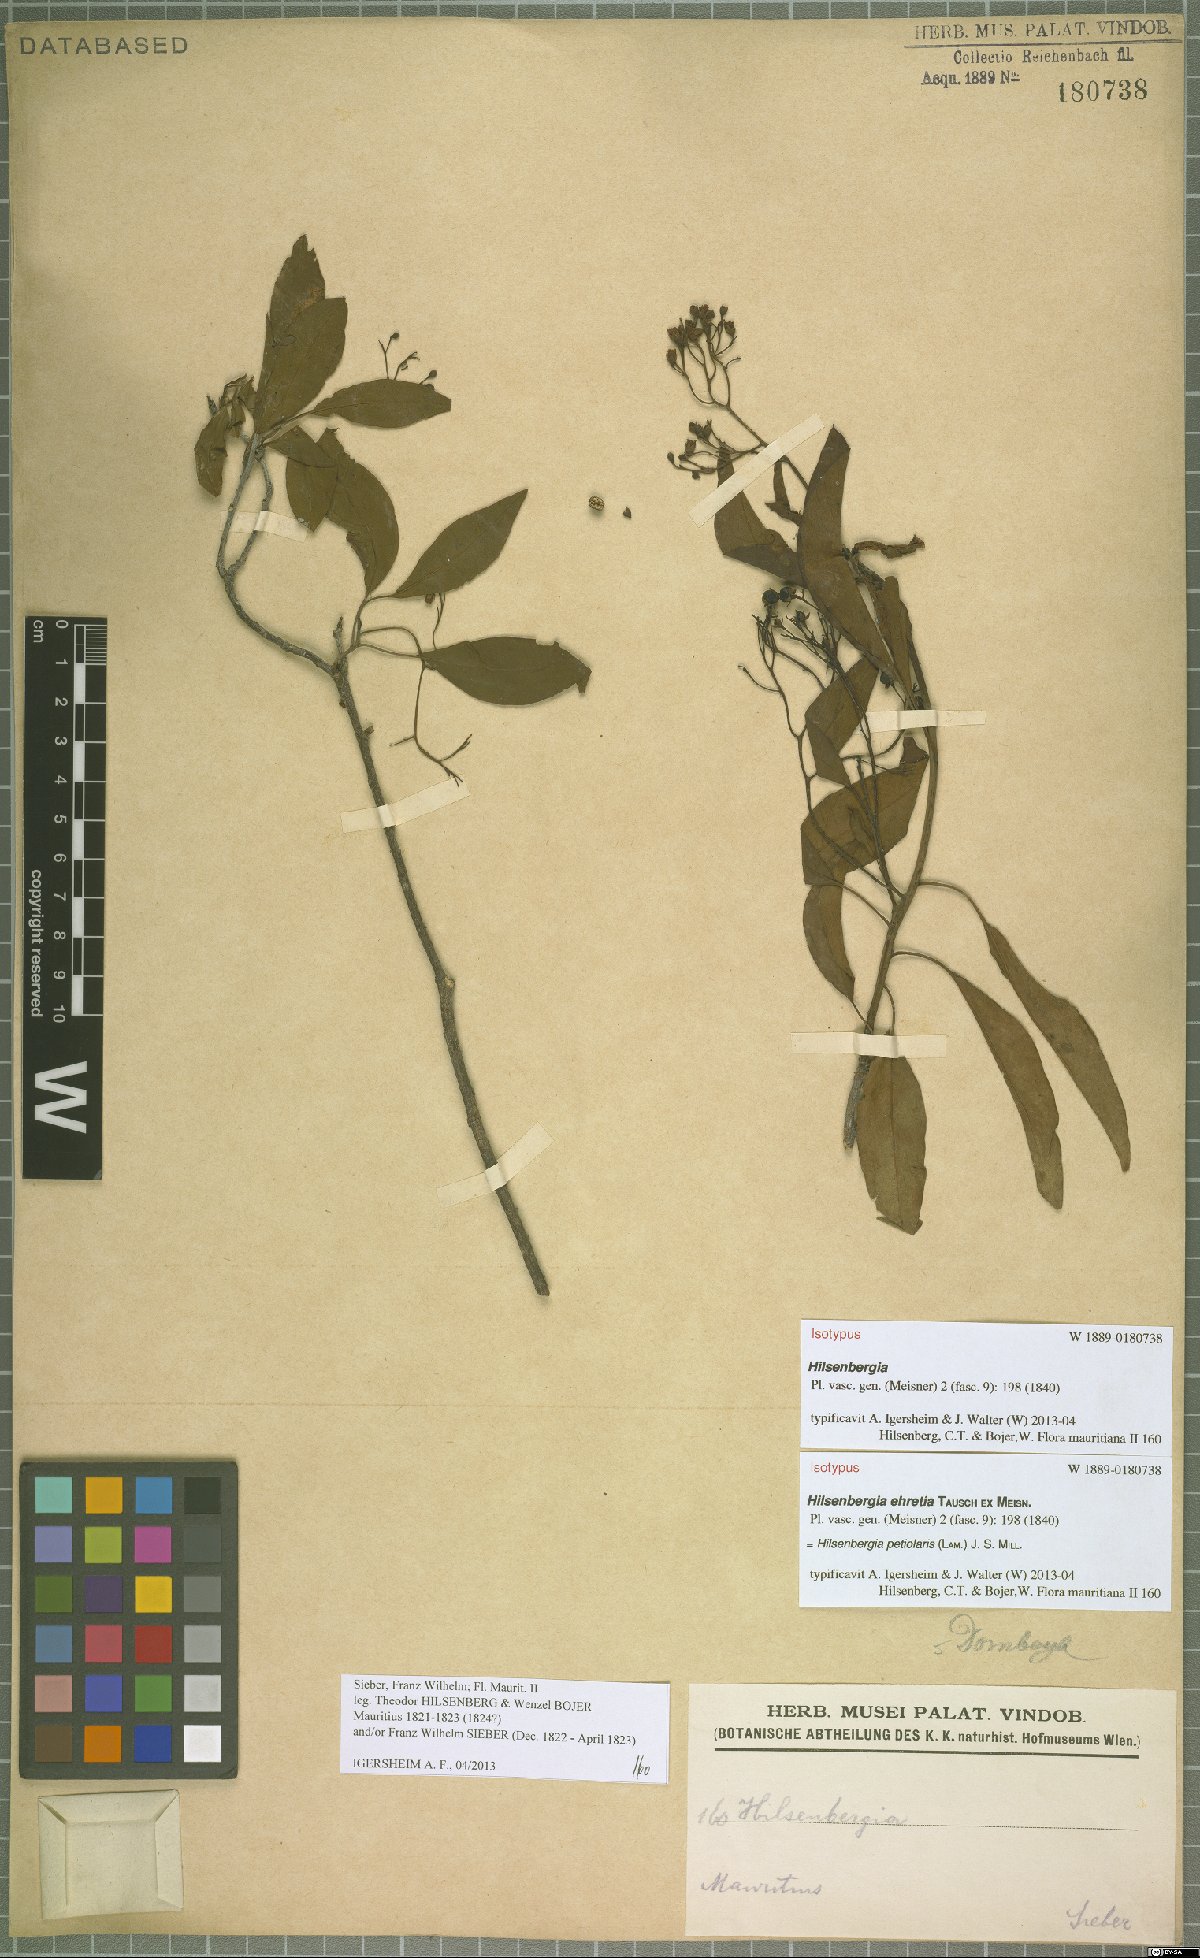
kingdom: Plantae
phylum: Tracheophyta
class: Magnoliopsida
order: Boraginales
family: Ehretiaceae
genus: Bourreria
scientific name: Bourreria petiolaris
